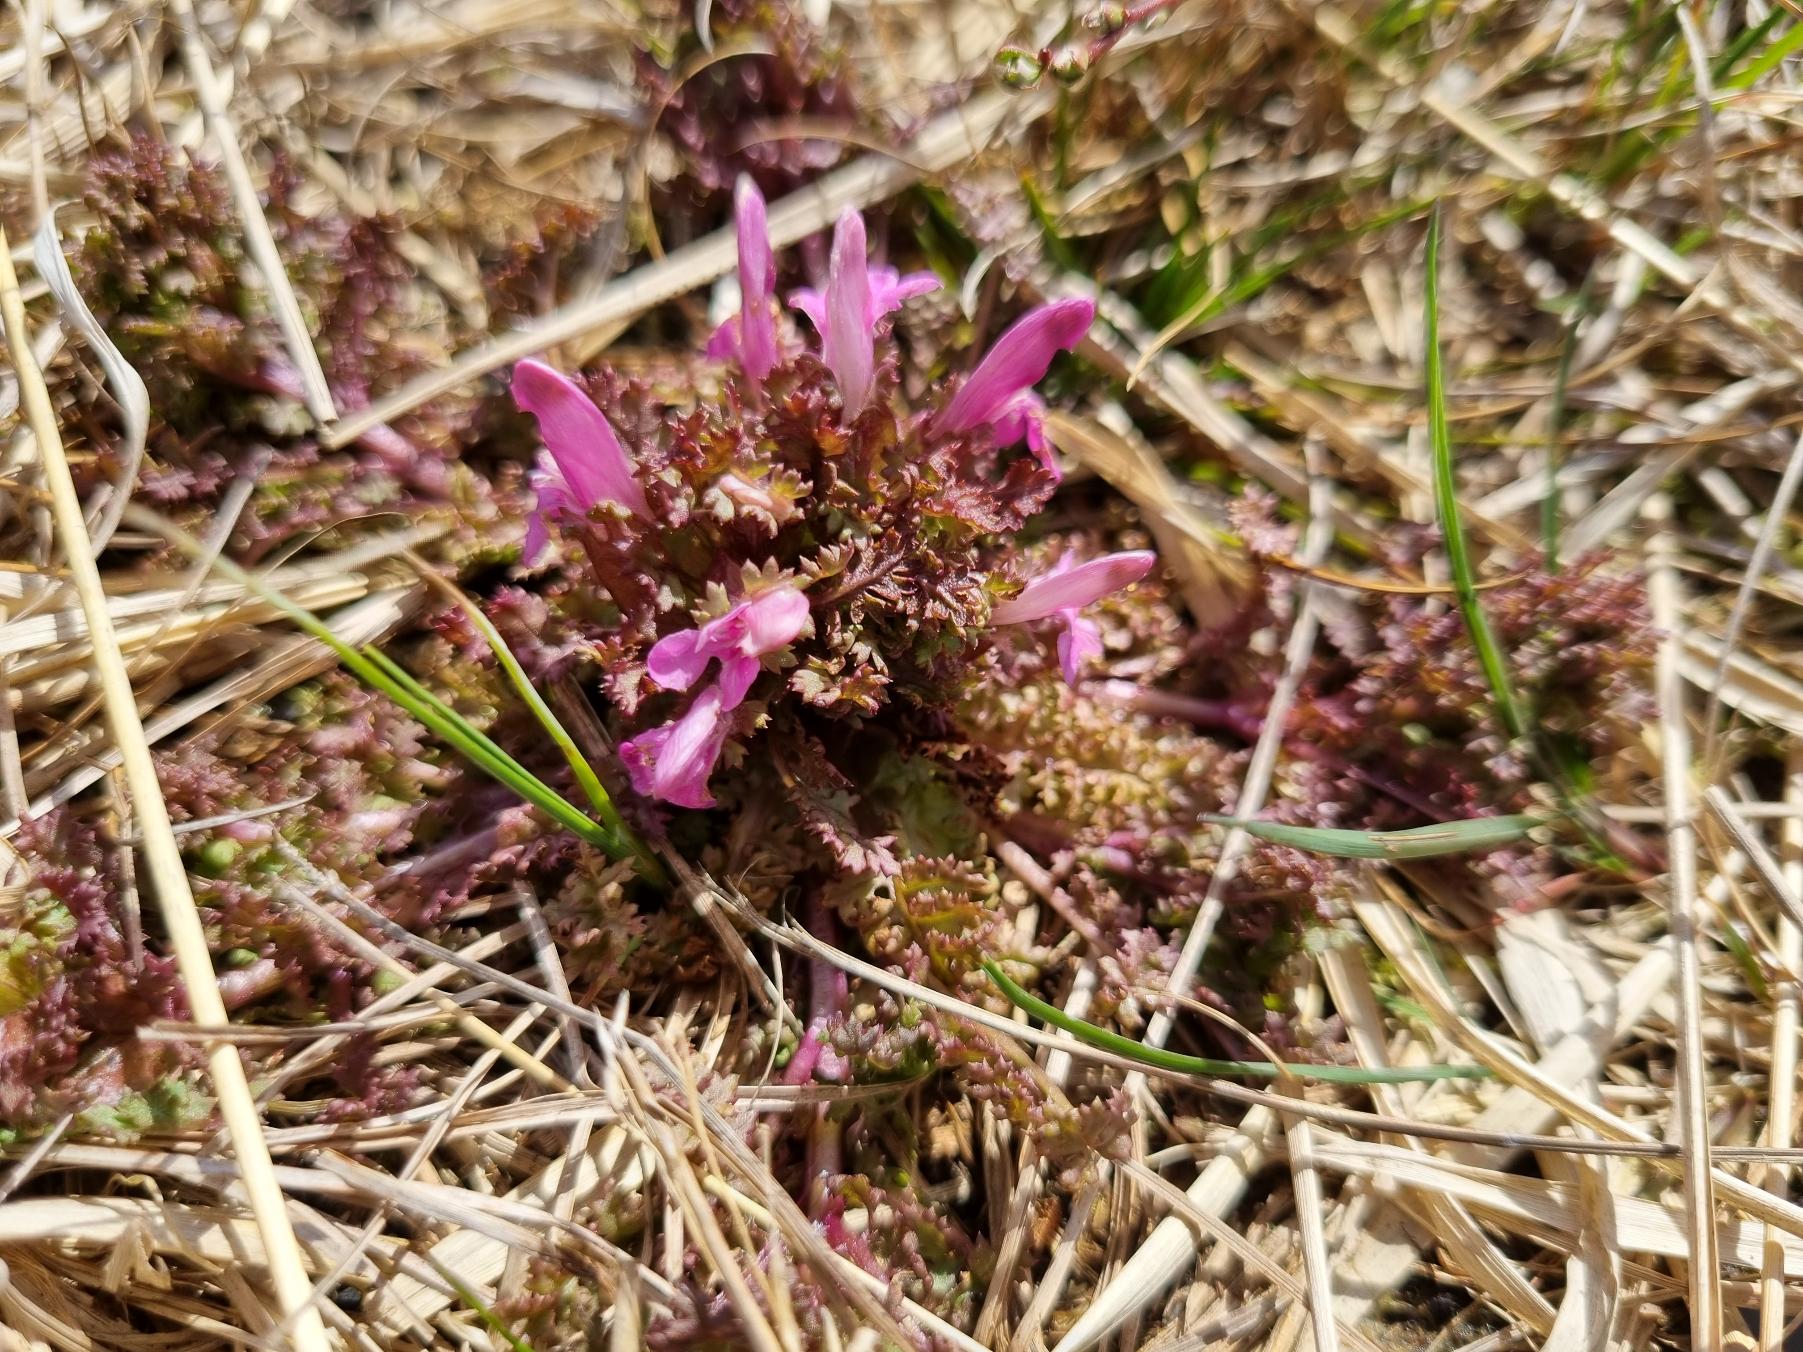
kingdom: Plantae
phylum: Tracheophyta
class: Magnoliopsida
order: Lamiales
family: Orobanchaceae
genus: Pedicularis
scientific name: Pedicularis sylvatica
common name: Mose-troldurt
